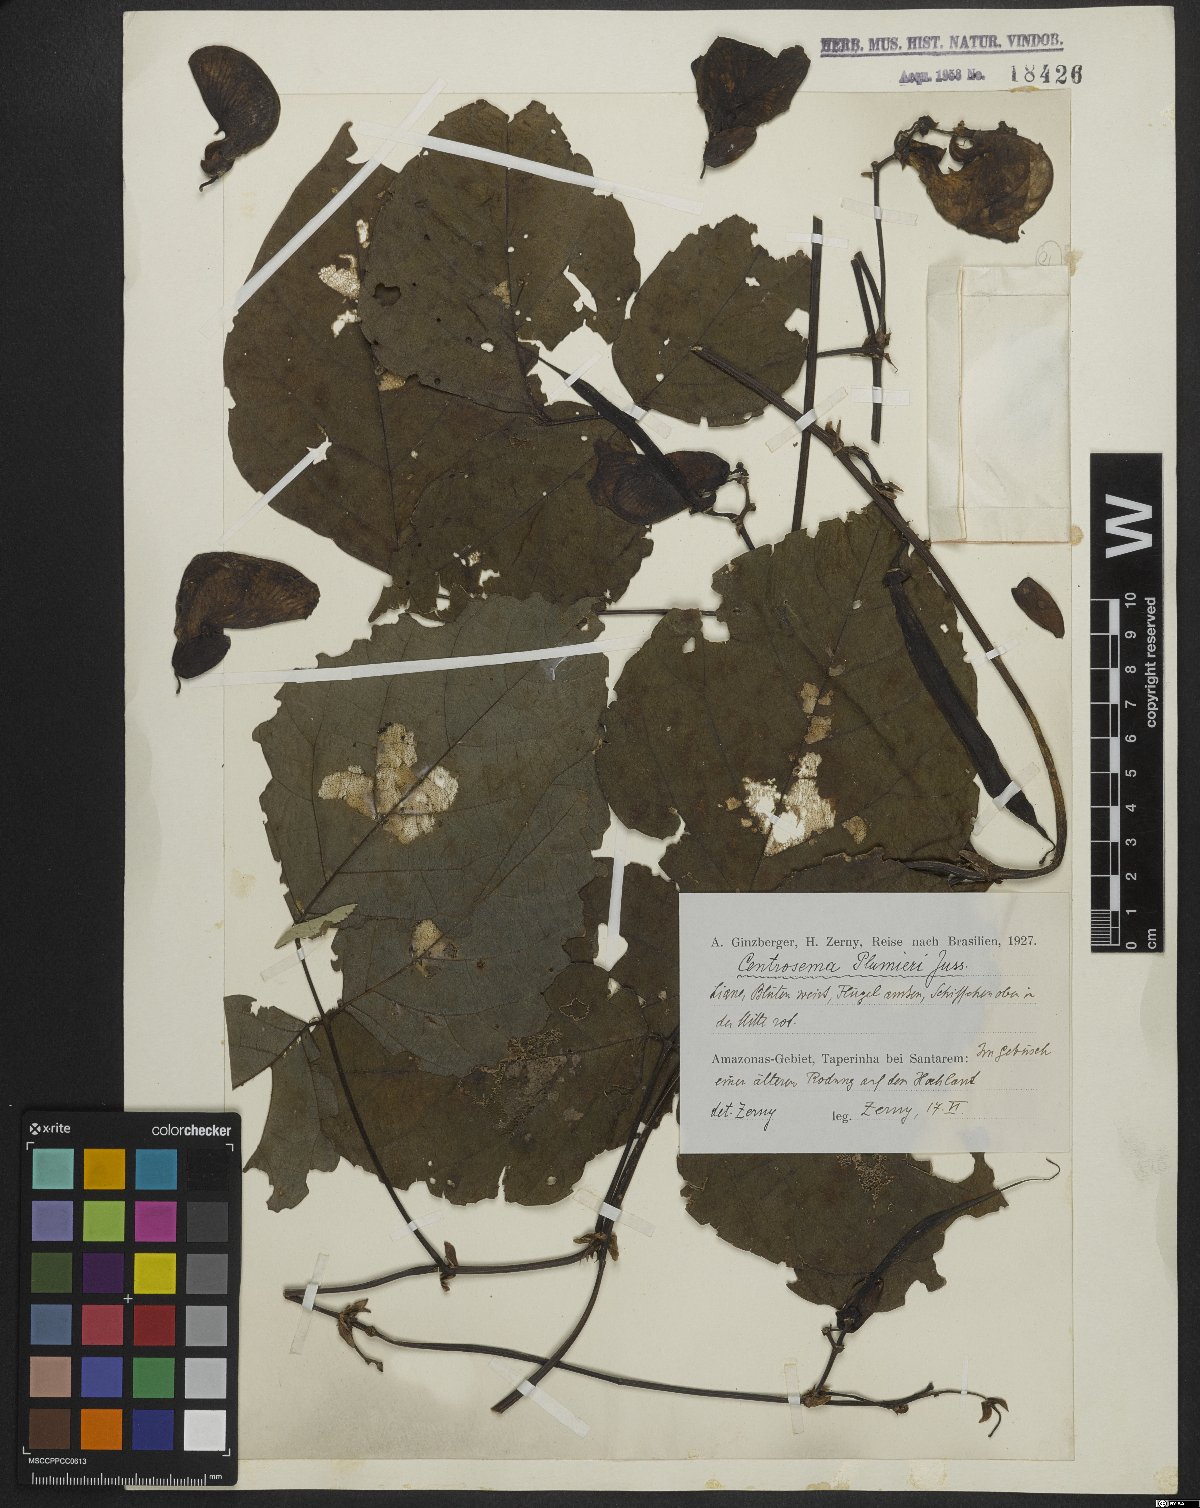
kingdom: Plantae
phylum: Tracheophyta
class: Magnoliopsida
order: Fabales
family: Fabaceae
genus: Centrosema
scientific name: Centrosema plumieri
